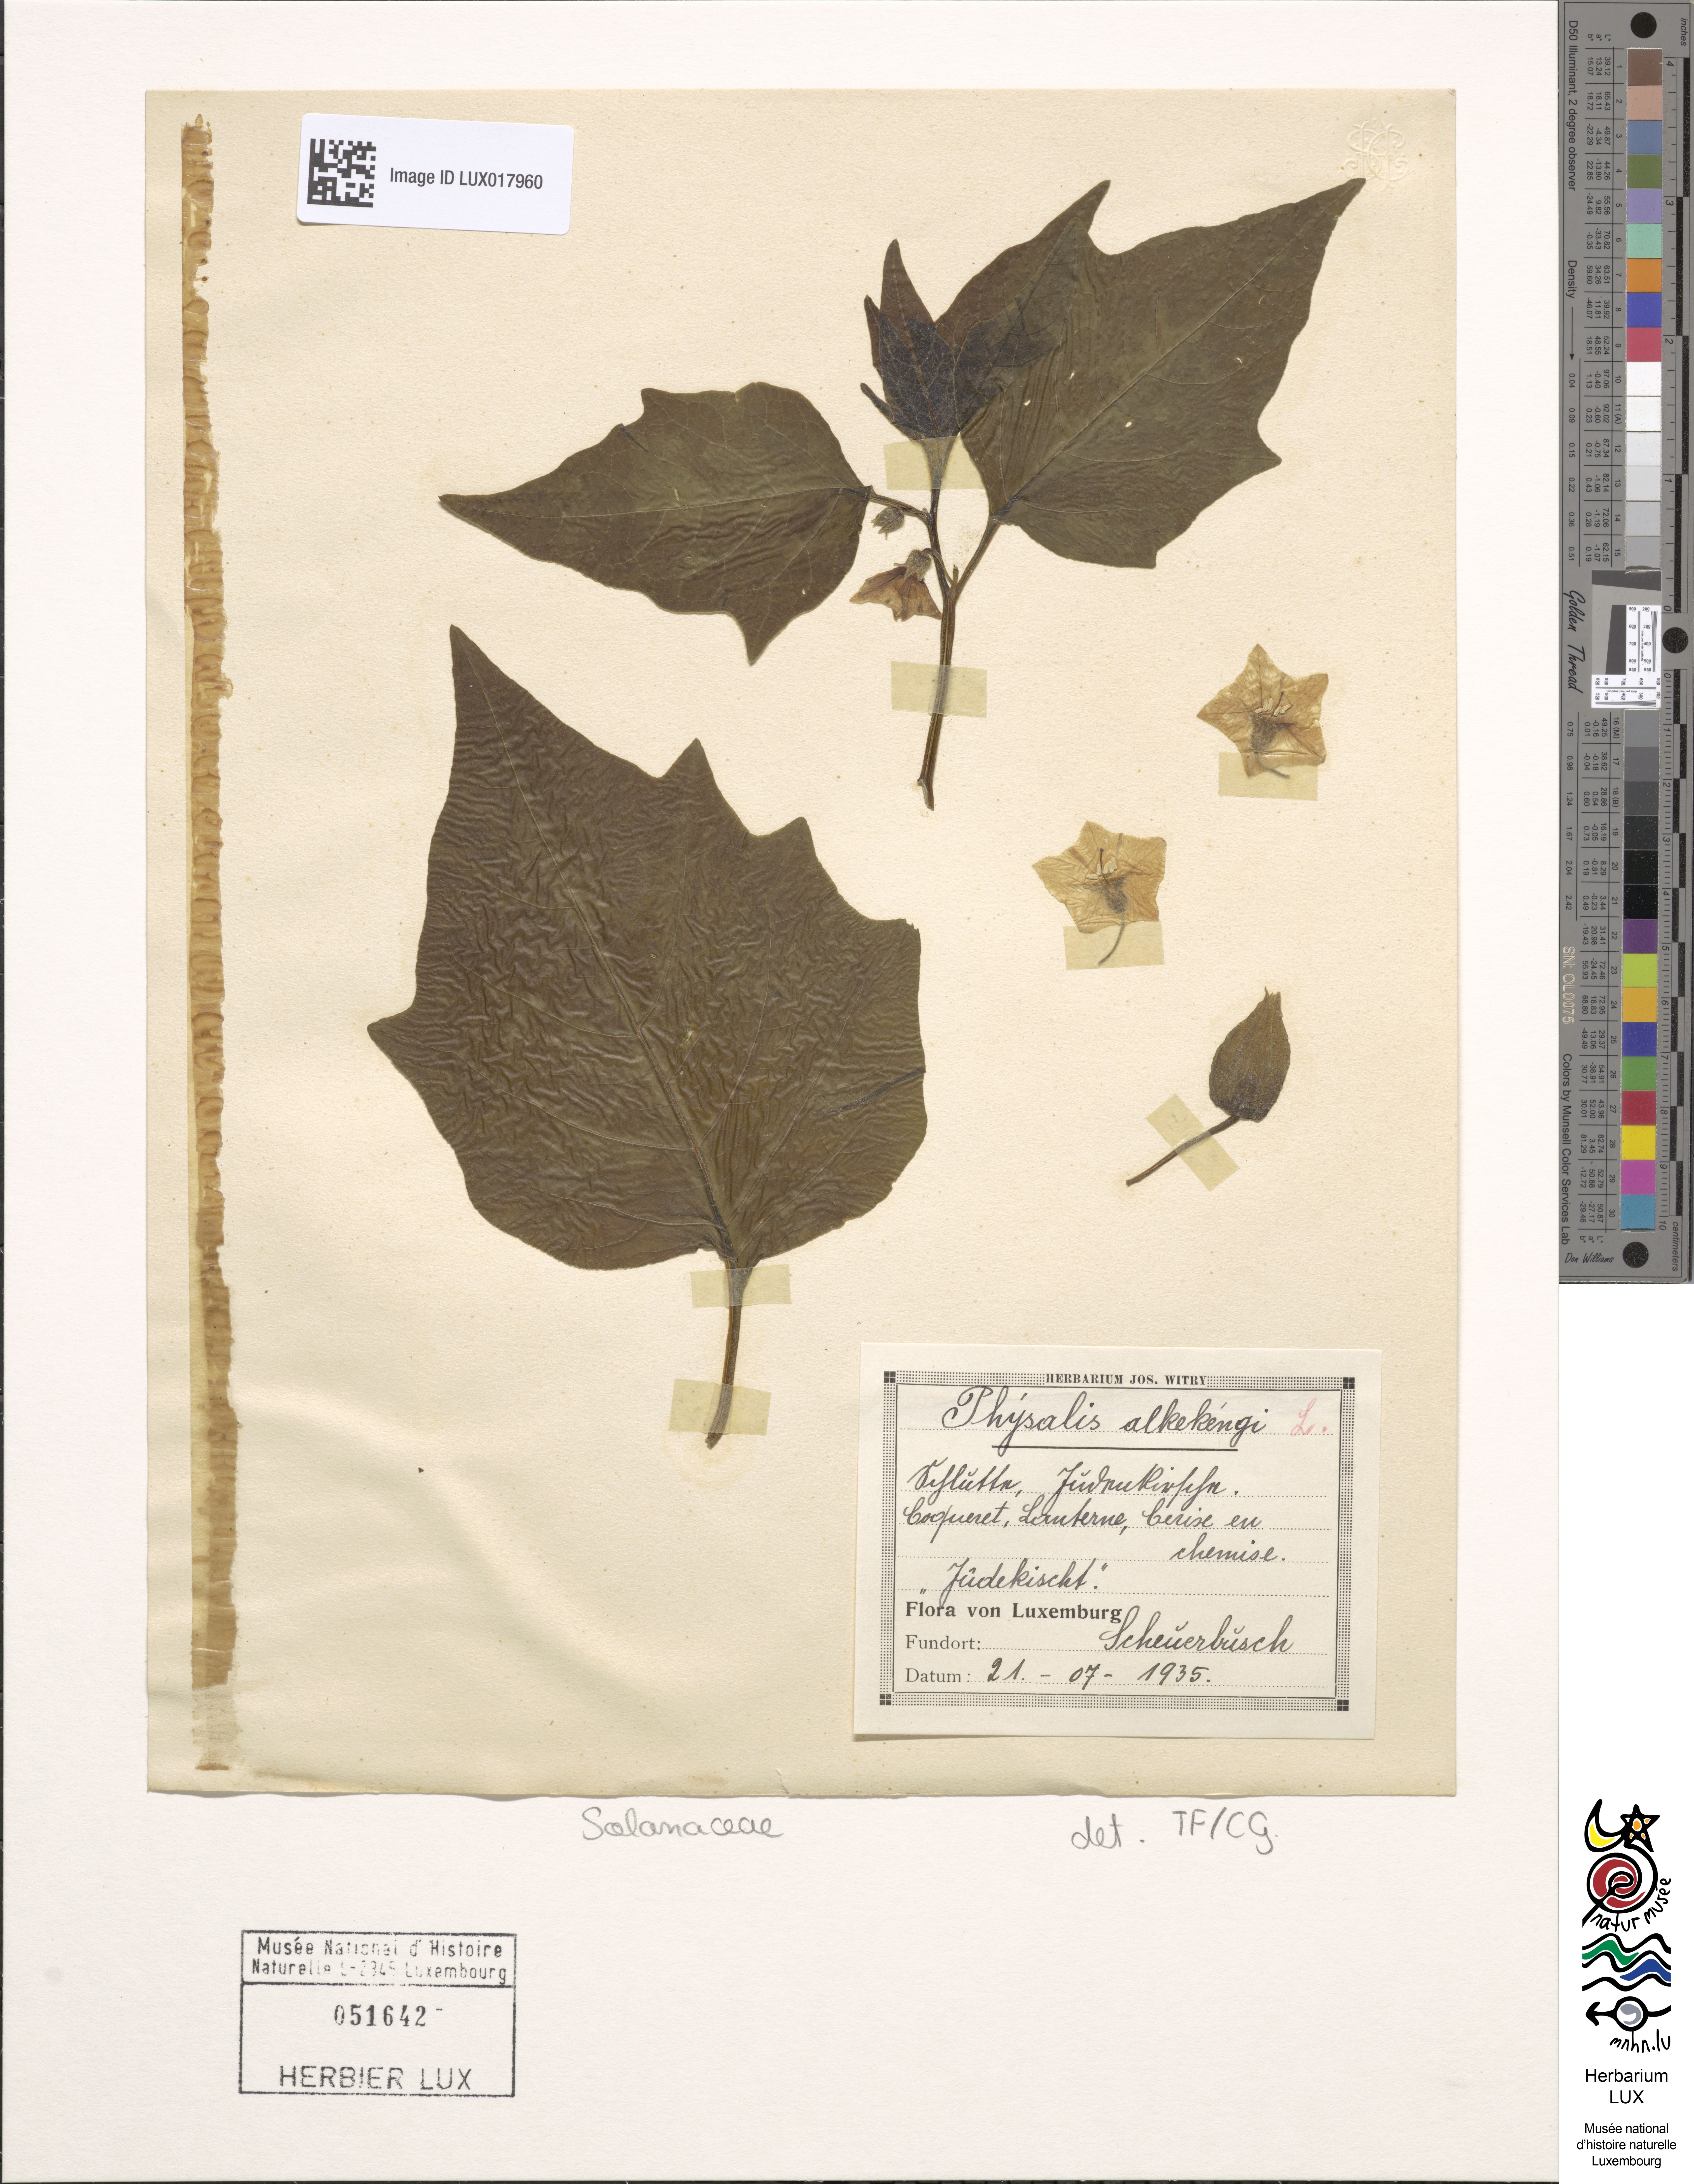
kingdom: Plantae
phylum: Tracheophyta
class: Magnoliopsida
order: Solanales
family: Solanaceae
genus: Alkekengi
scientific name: Alkekengi officinarum
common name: Japanese-lantern
